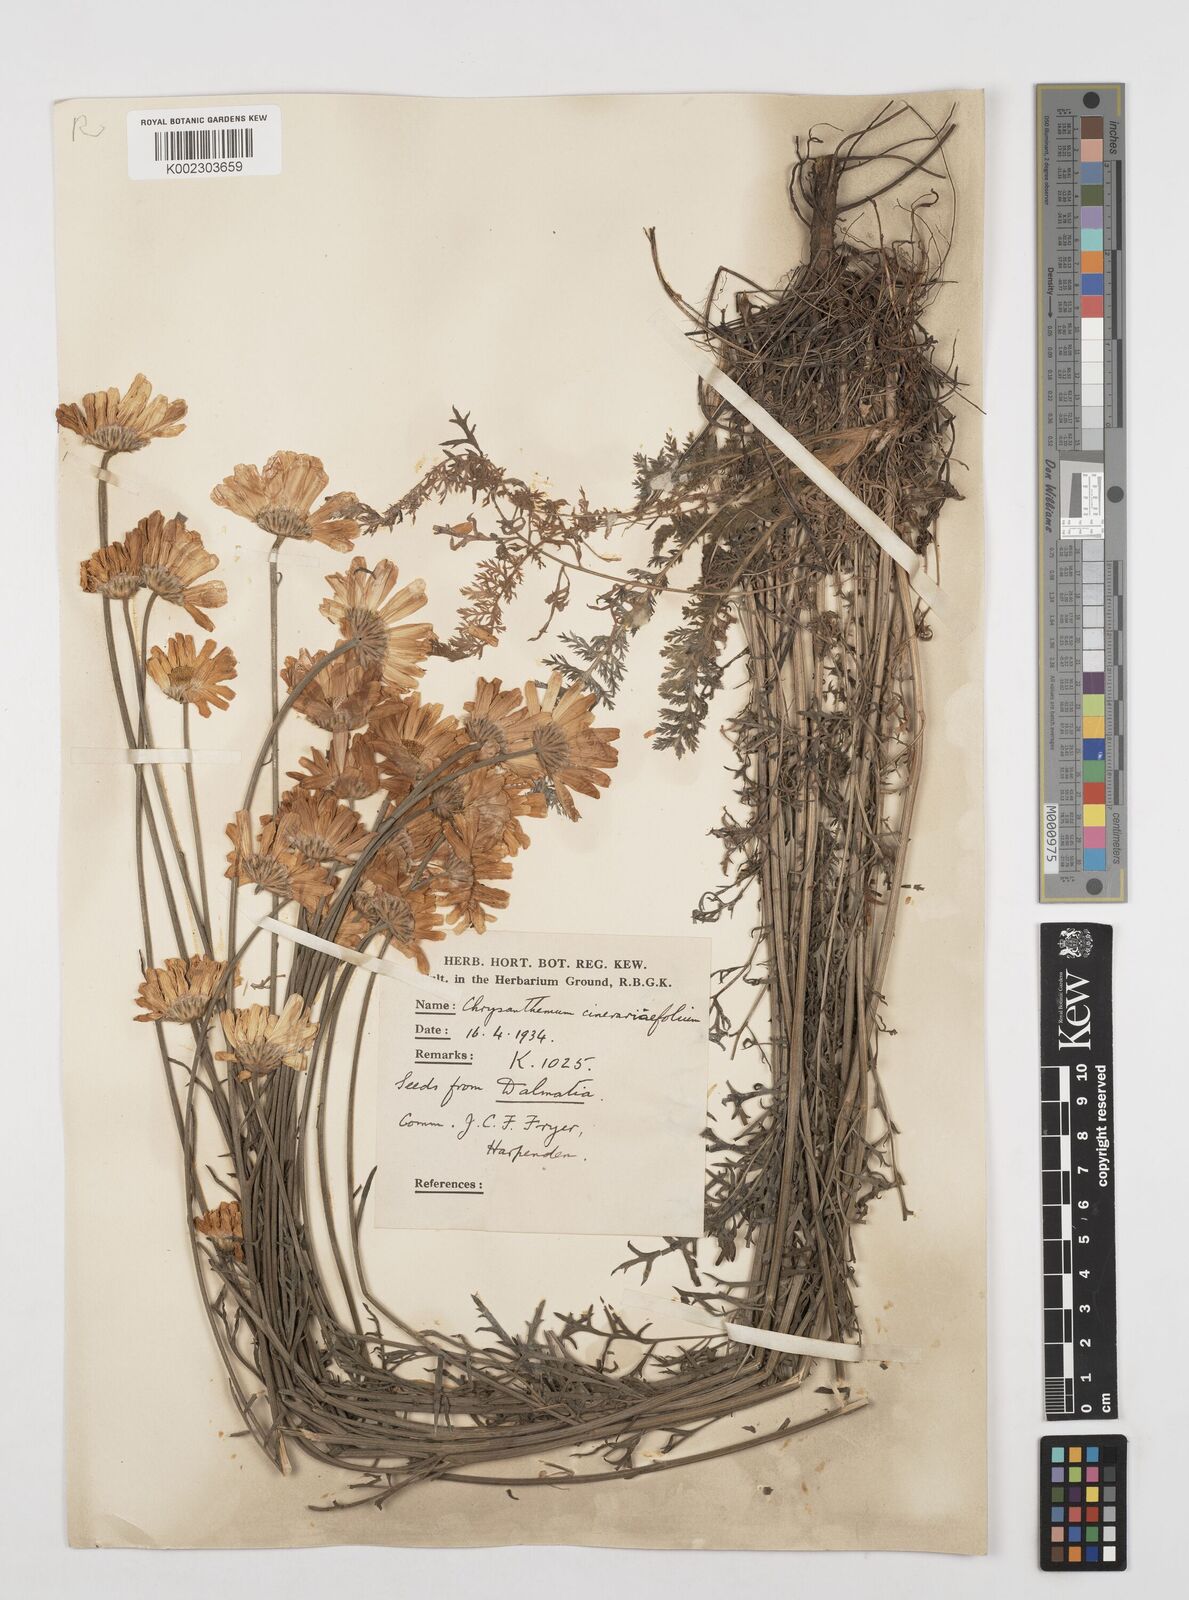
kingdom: Plantae
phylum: Tracheophyta
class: Magnoliopsida
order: Asterales
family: Asteraceae
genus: Tanacetum
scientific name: Tanacetum cinerariifolium
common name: Dalmatian pyrethrum
